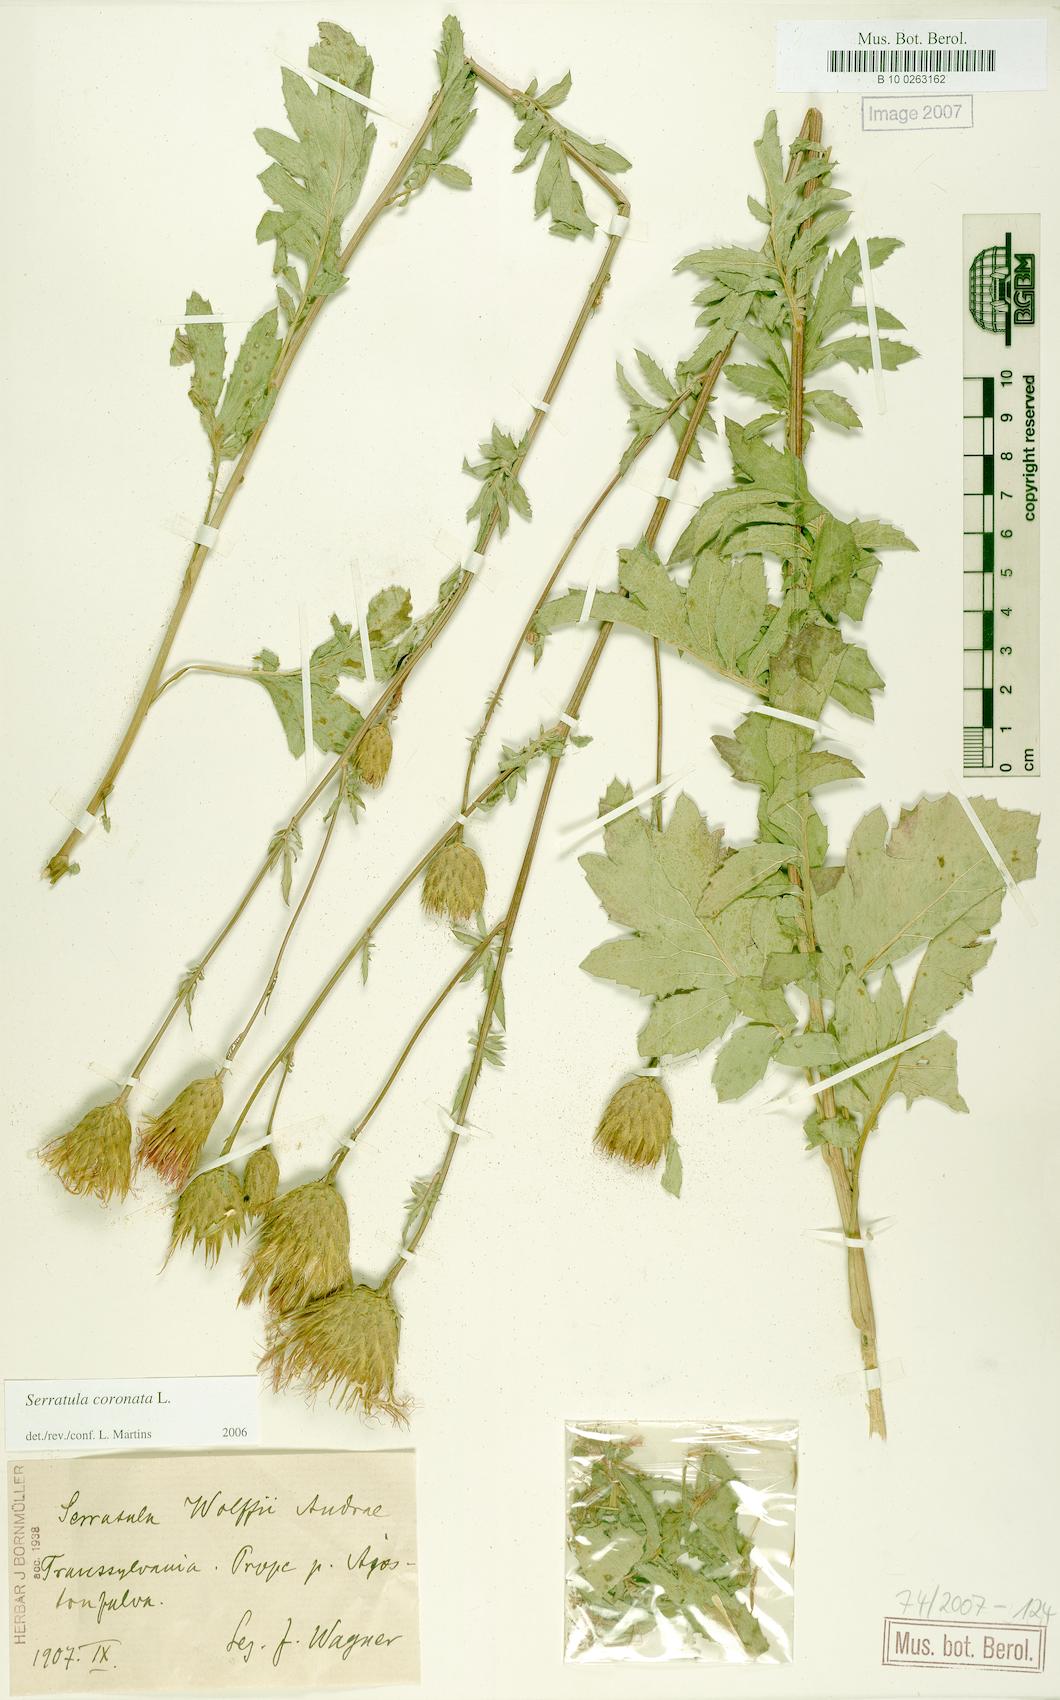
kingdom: Plantae
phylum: Tracheophyta
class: Magnoliopsida
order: Asterales
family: Asteraceae
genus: Serratula
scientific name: Serratula coronata
